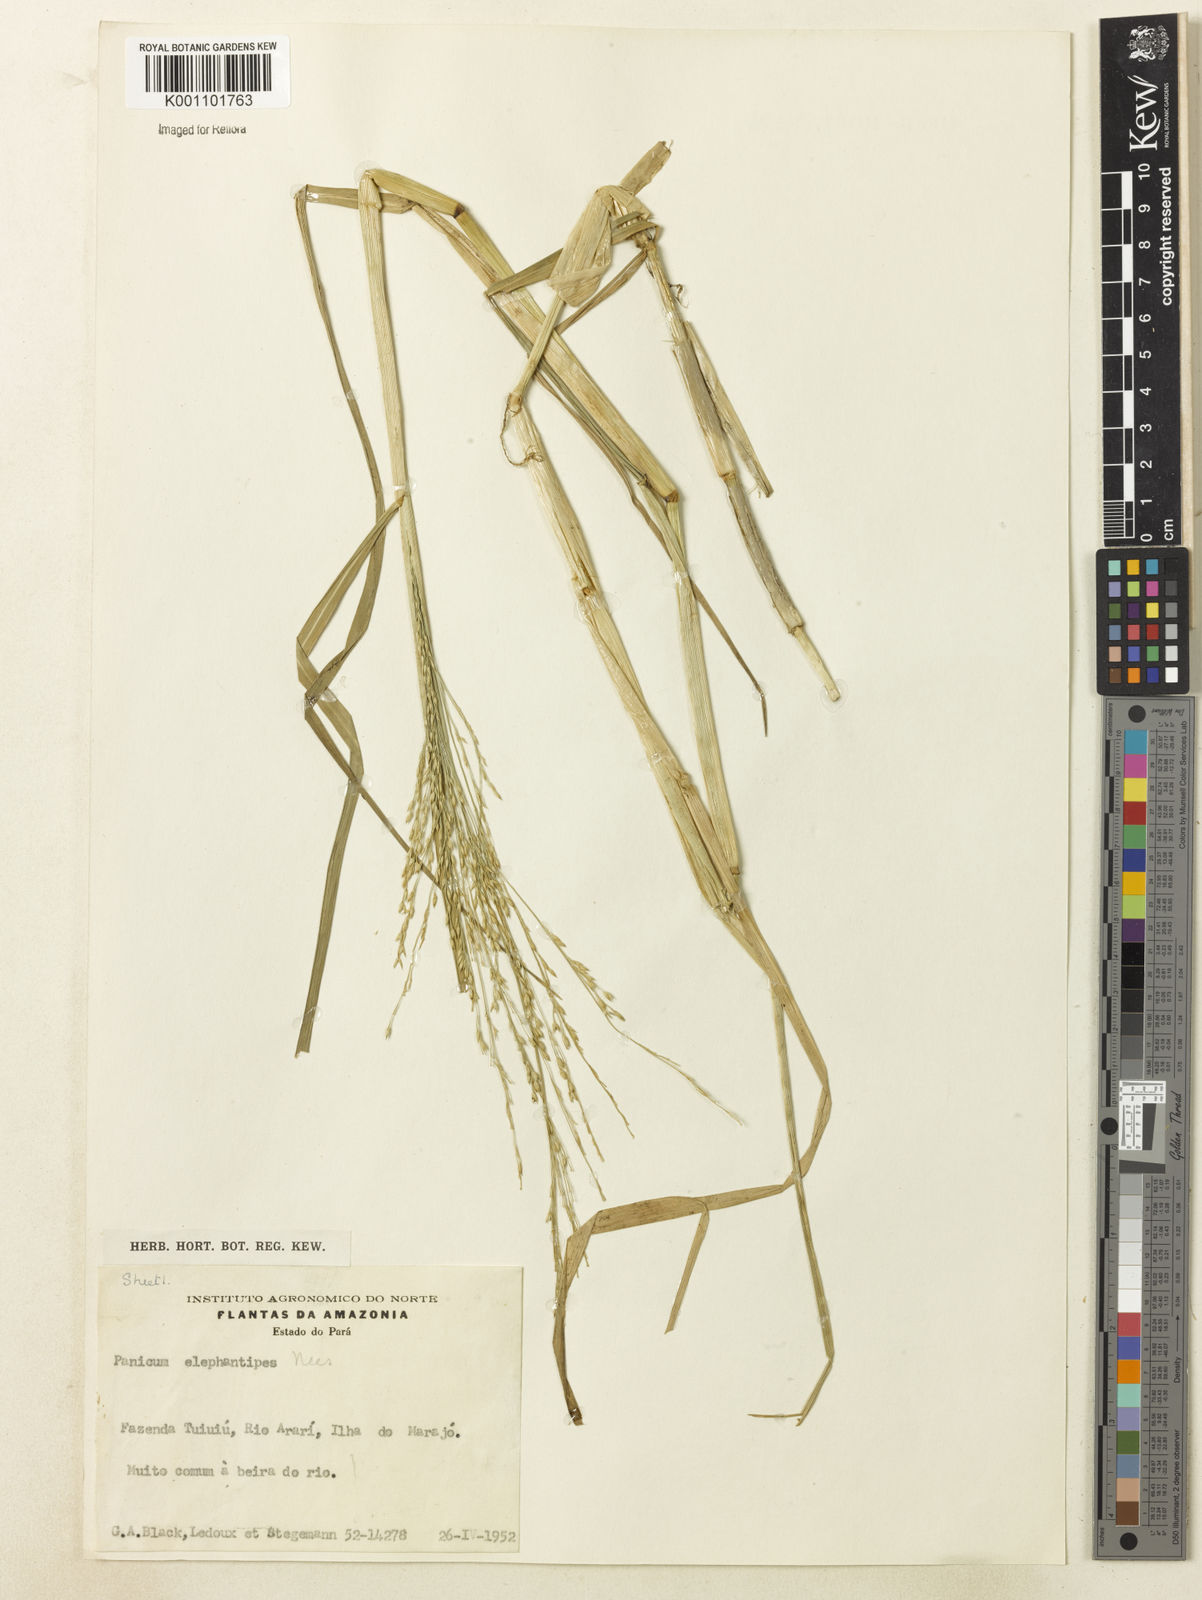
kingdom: Plantae
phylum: Tracheophyta
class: Liliopsida
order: Poales
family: Poaceae
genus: Louisiella
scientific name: Louisiella elephantipes
